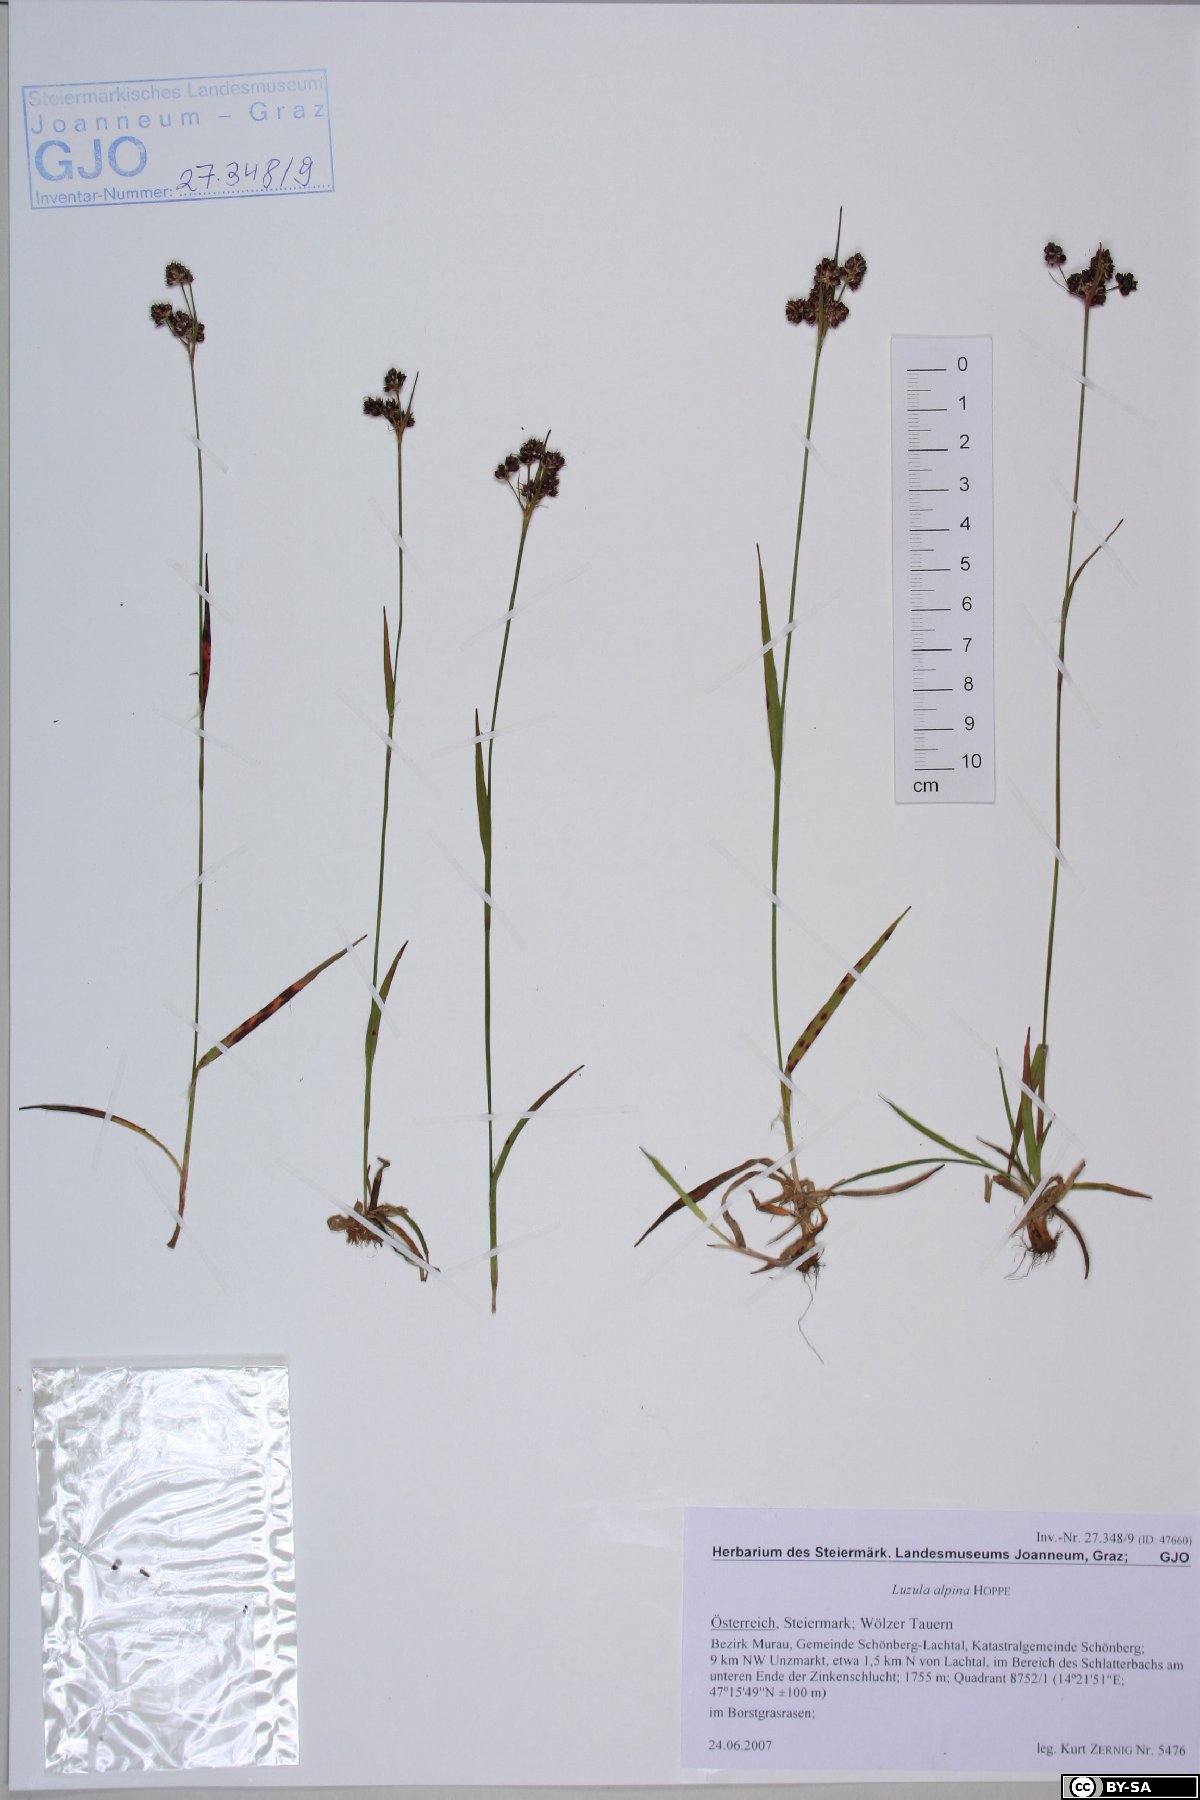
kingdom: Plantae
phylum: Tracheophyta
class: Liliopsida
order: Poales
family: Juncaceae
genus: Luzula
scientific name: Luzula alpina
